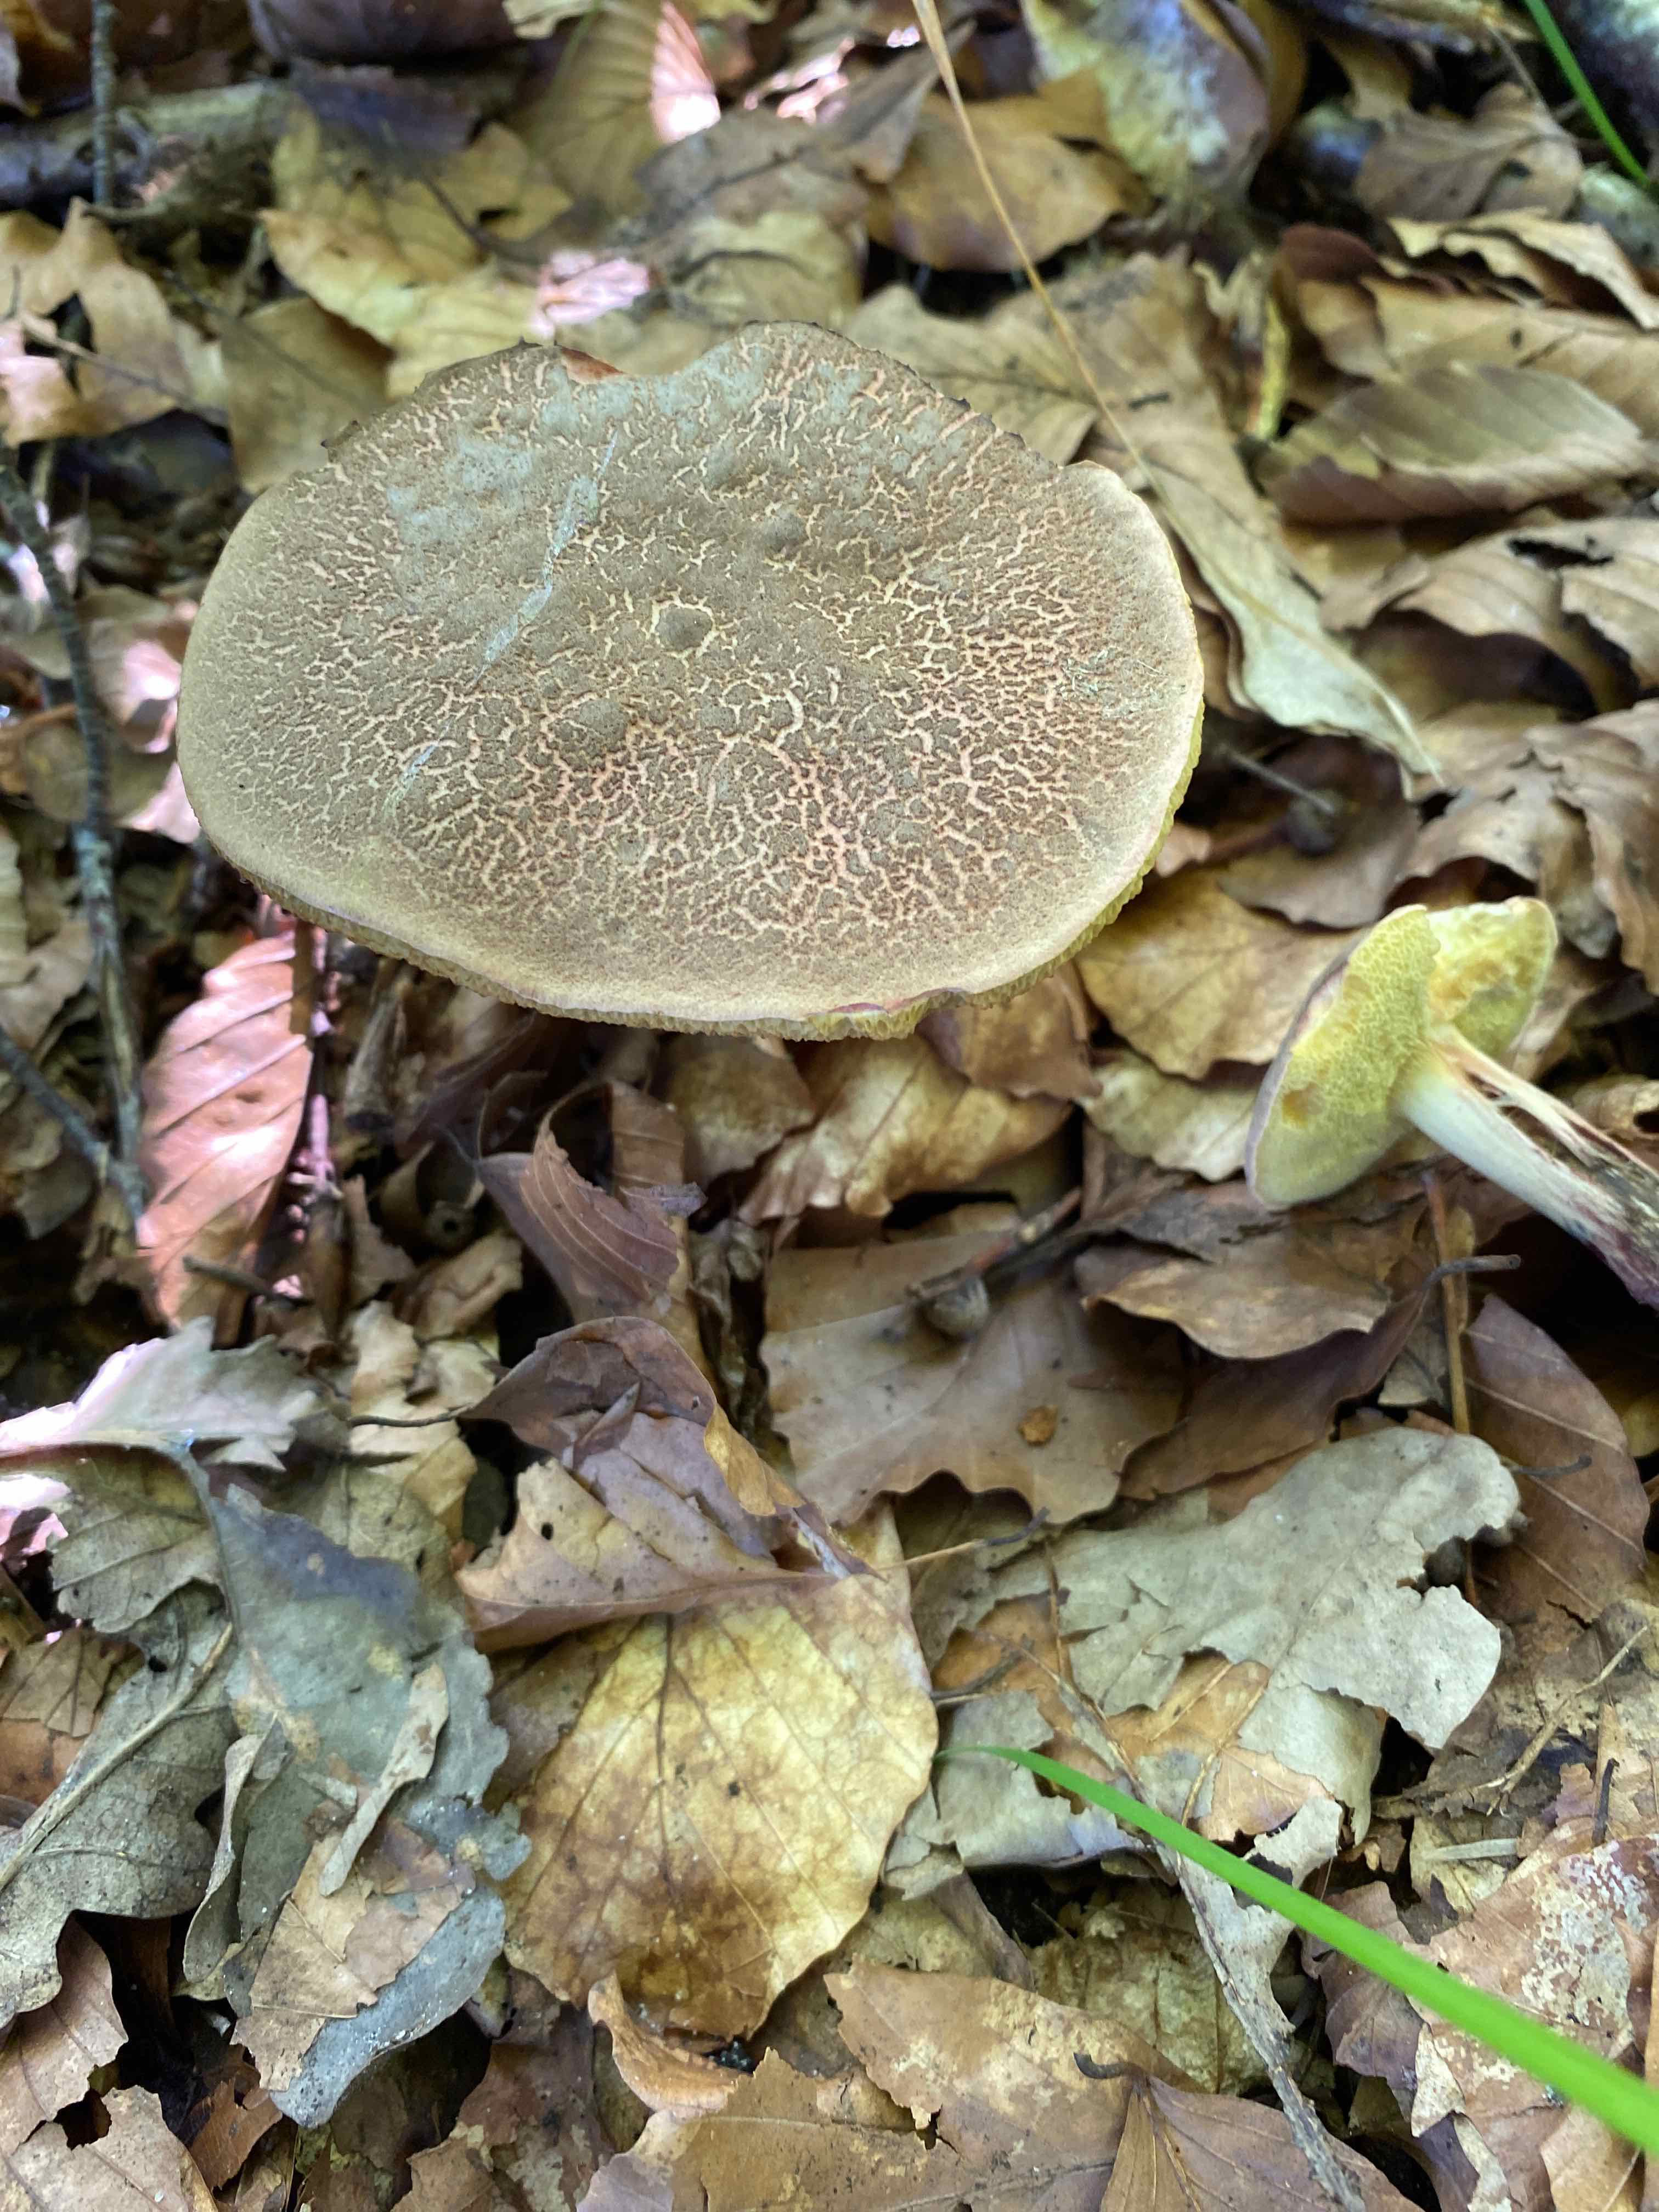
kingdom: Fungi
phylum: Basidiomycota
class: Agaricomycetes
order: Boletales
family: Boletaceae
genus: Xerocomellus
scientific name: Xerocomellus cisalpinus
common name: finsprukken rørhat
